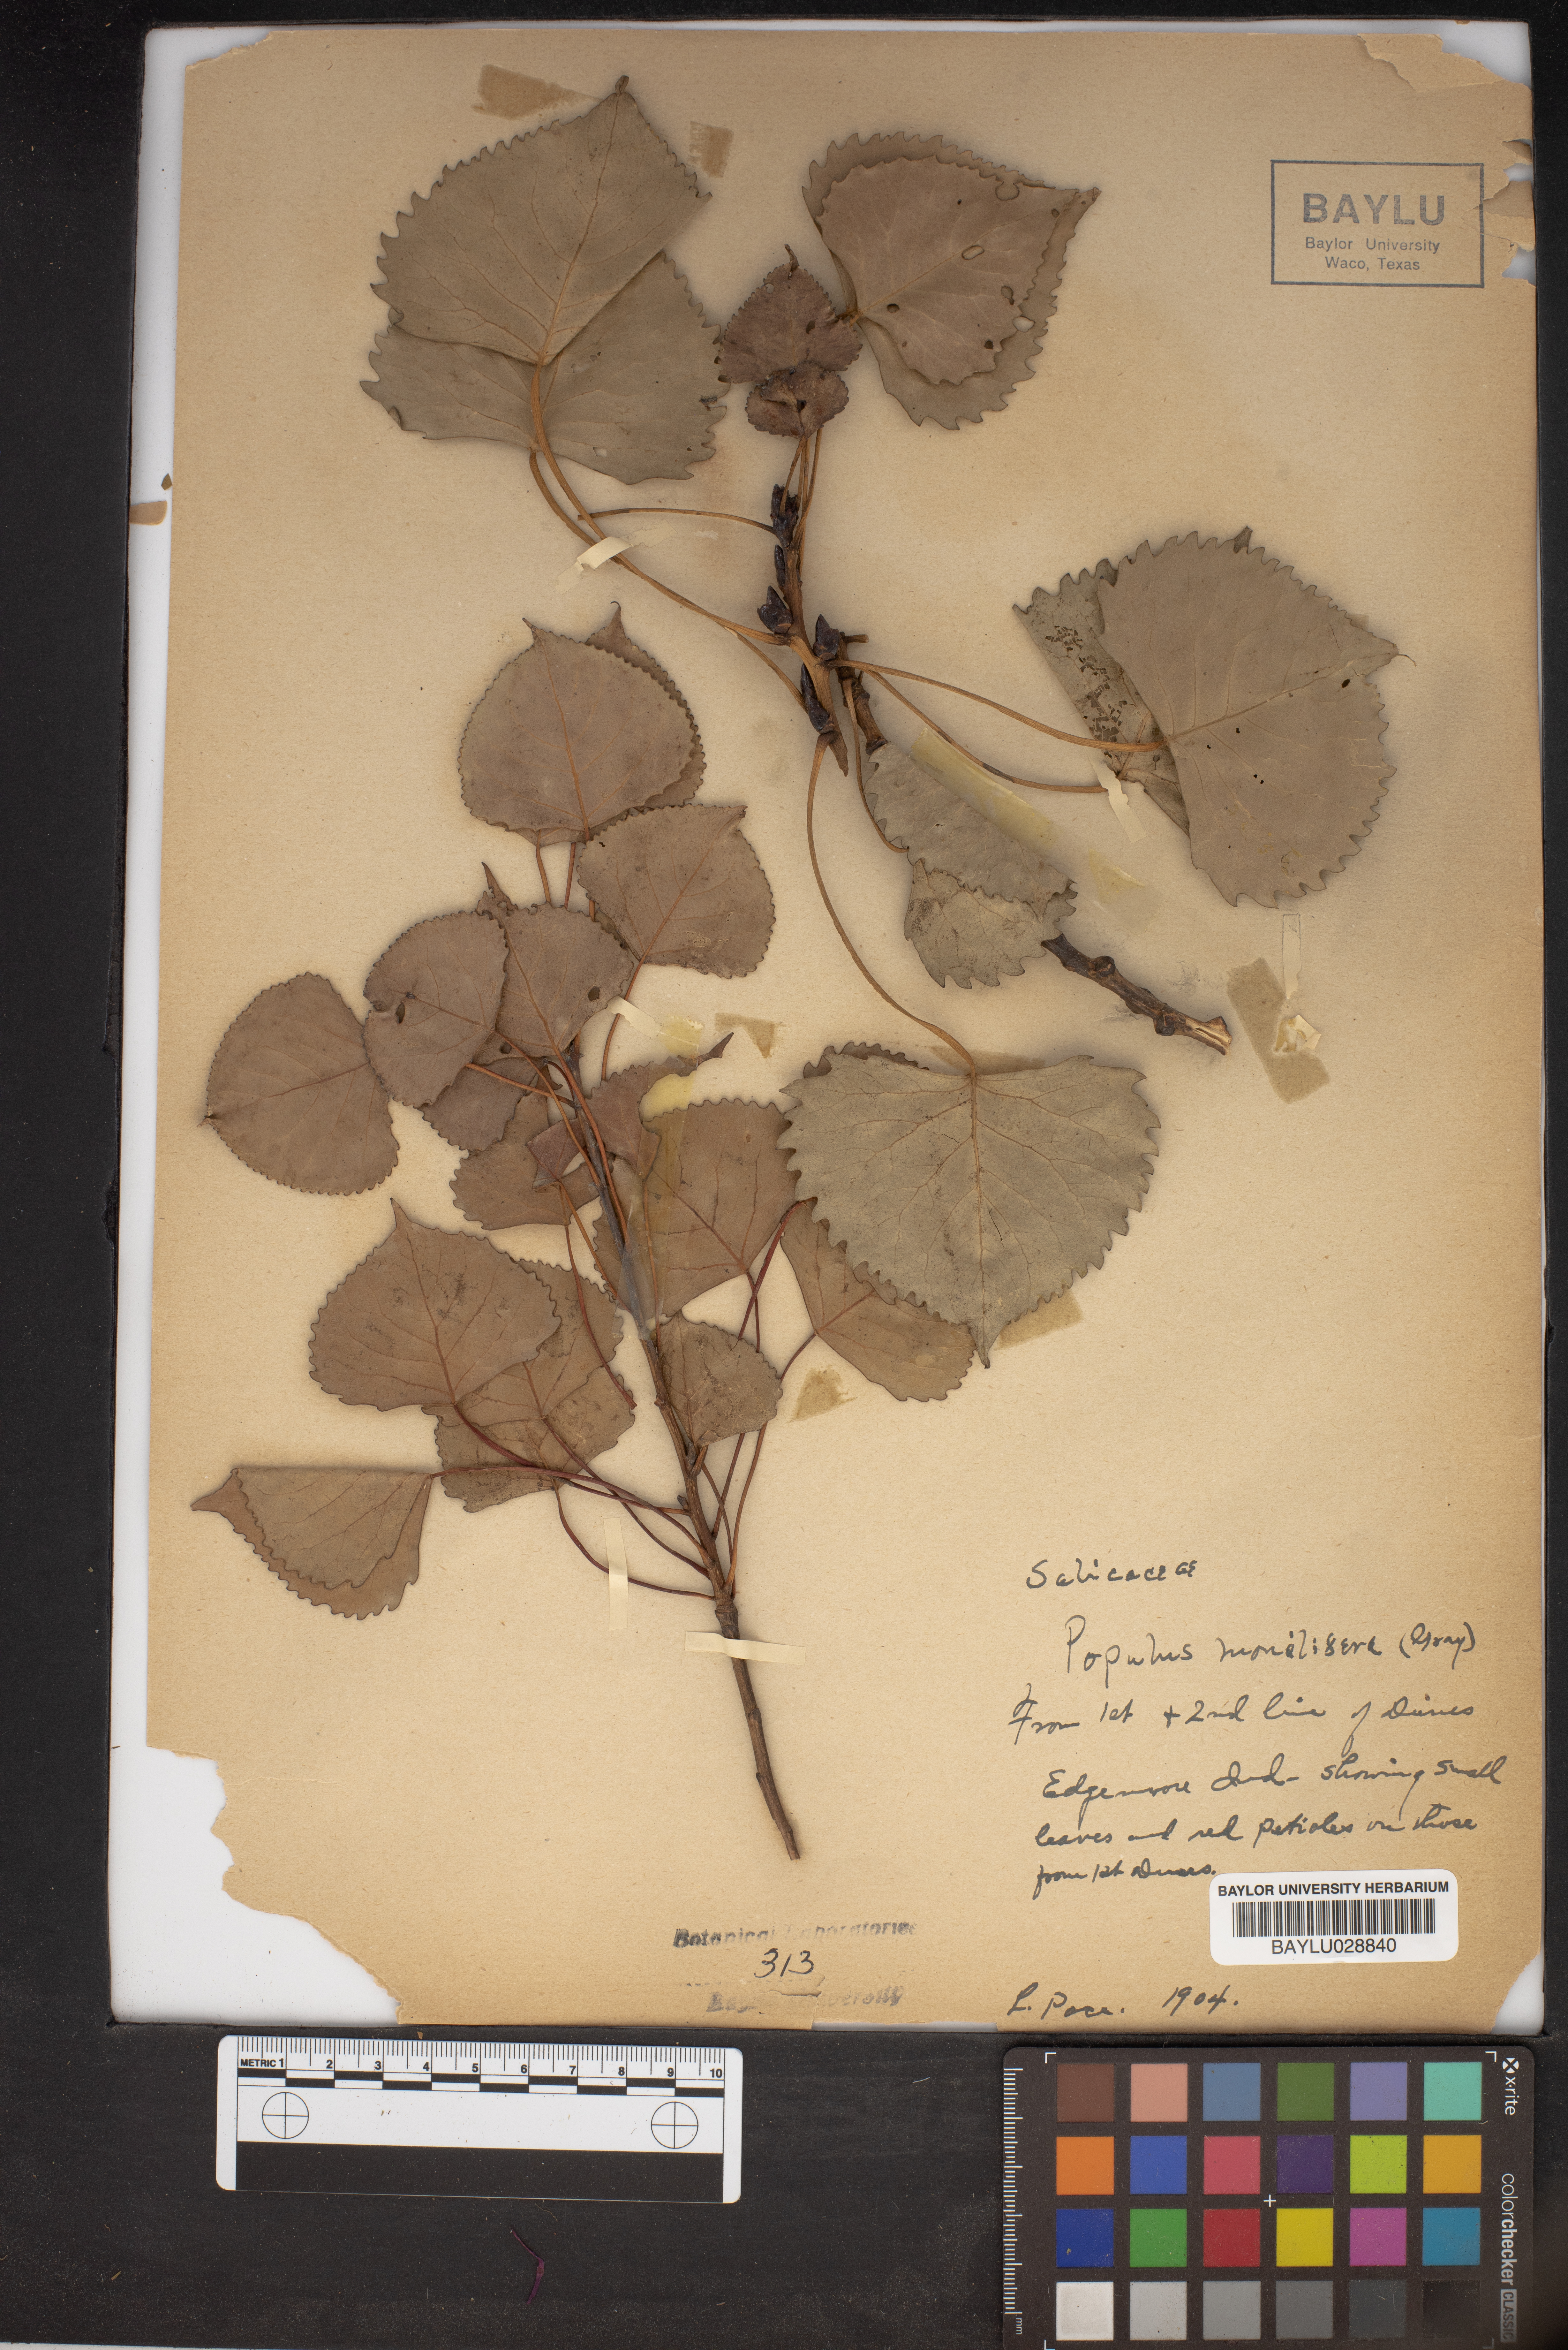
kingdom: Plantae
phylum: Tracheophyta
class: Magnoliopsida
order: Malpighiales
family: Salicaceae
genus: Populus
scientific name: Populus deltoides
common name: Eastern cottonwood
